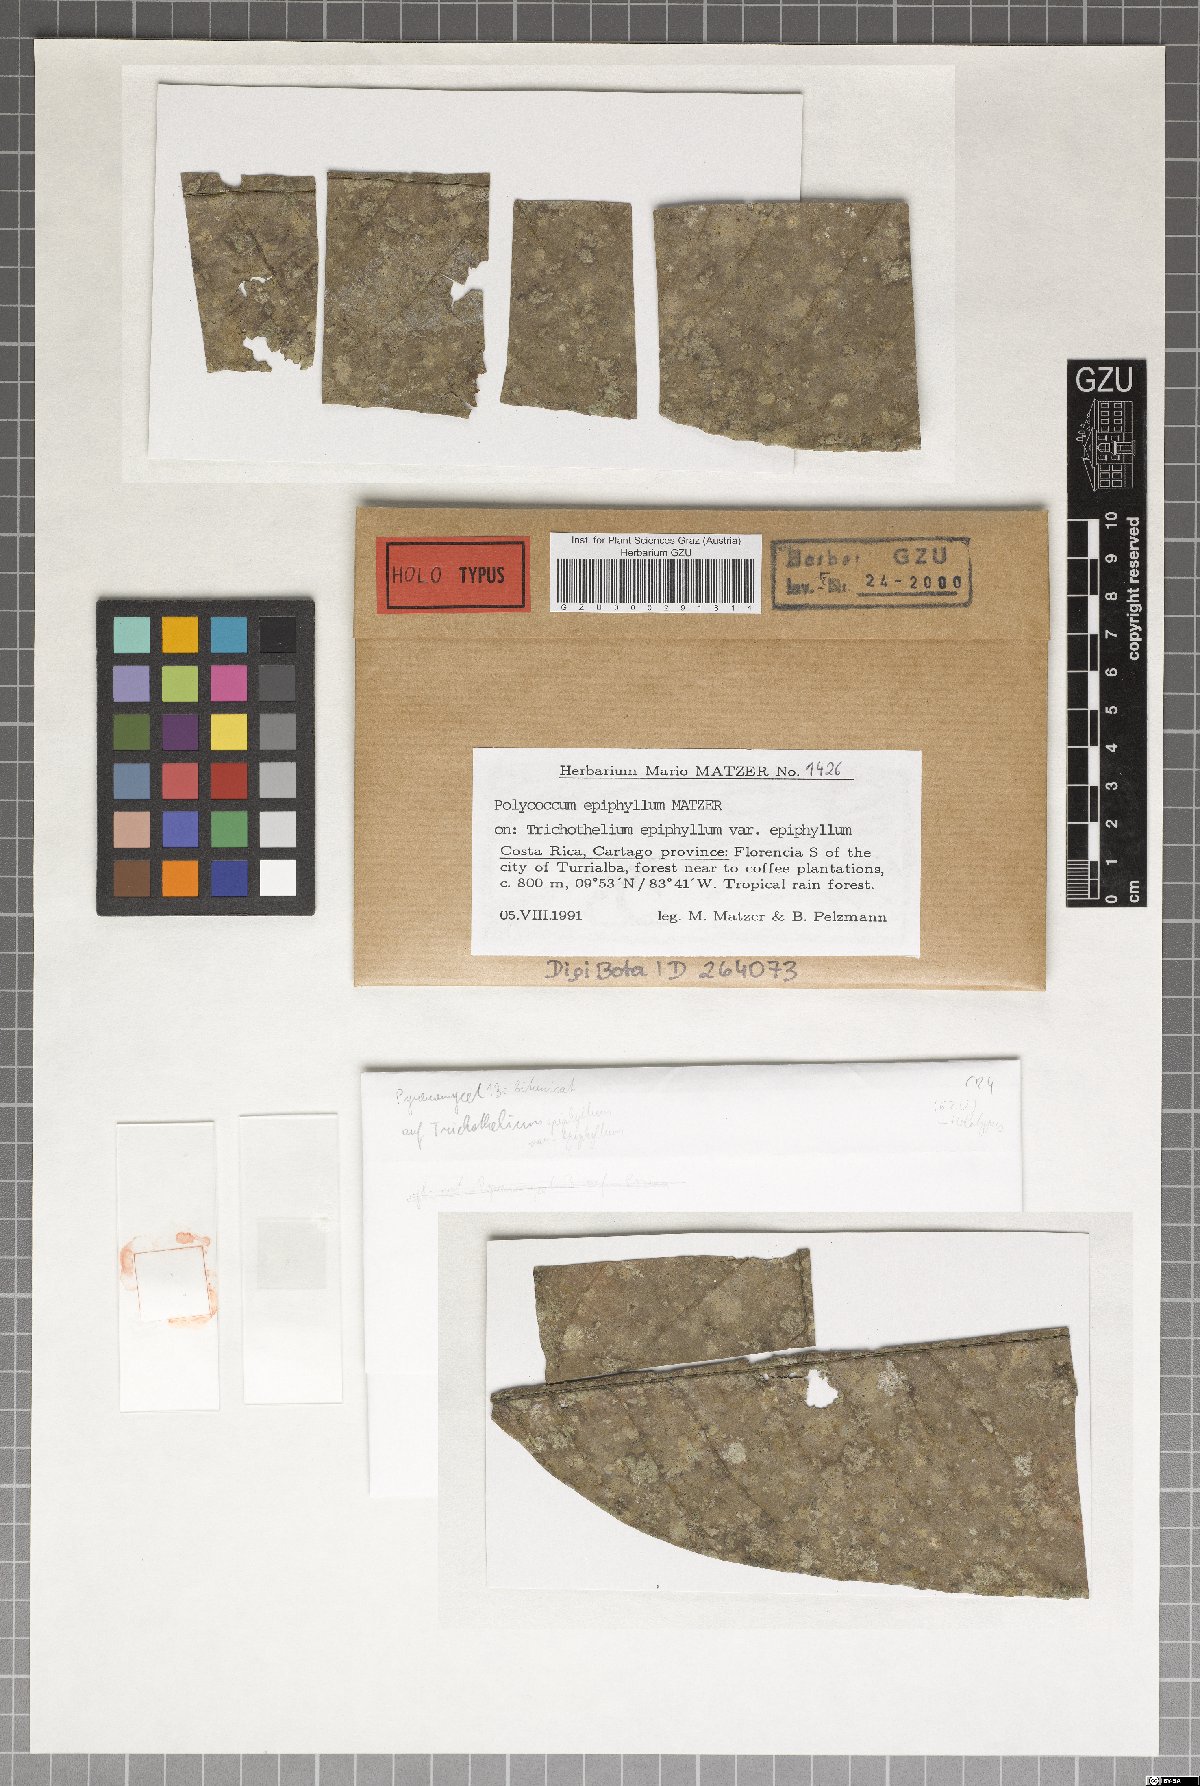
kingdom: Fungi
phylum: Ascomycota
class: Dothideomycetes
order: Pleosporales
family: Dacampiaceae
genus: Polycoccum
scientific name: Polycoccum
